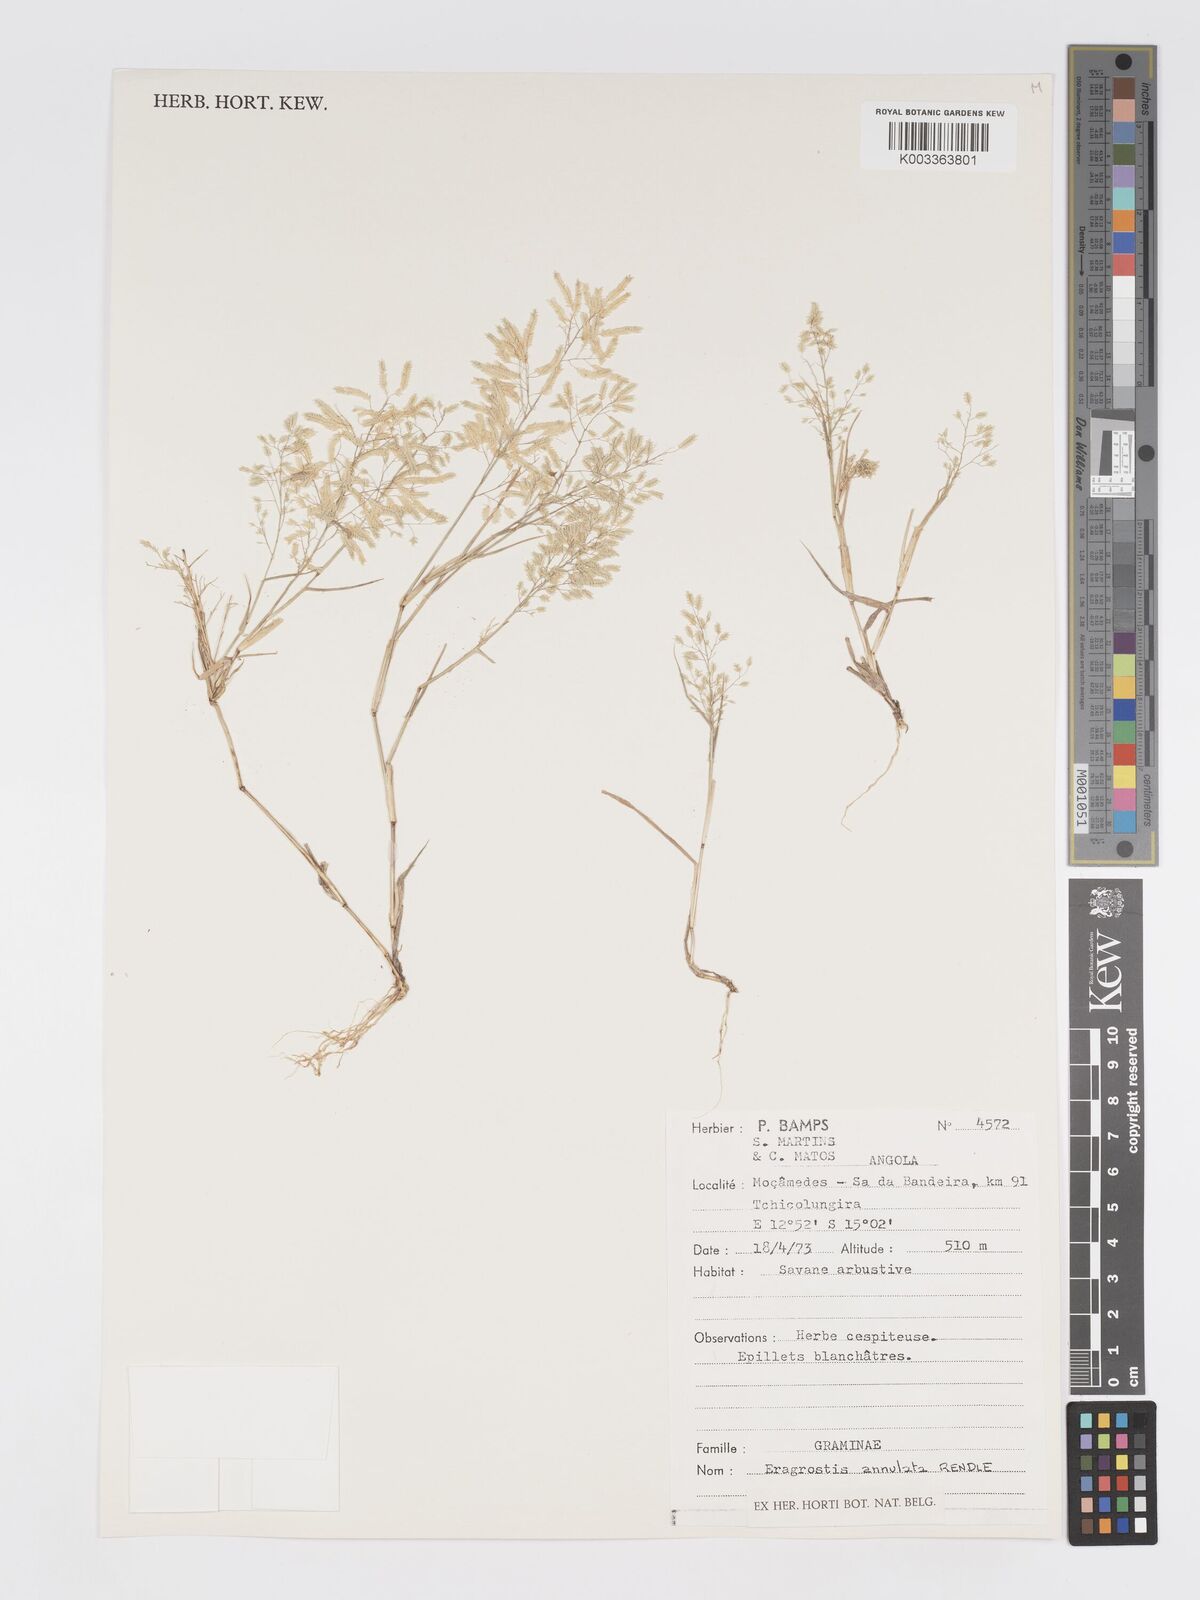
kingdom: Plantae
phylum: Tracheophyta
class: Liliopsida
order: Poales
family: Poaceae
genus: Eragrostis
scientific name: Eragrostis annulata
